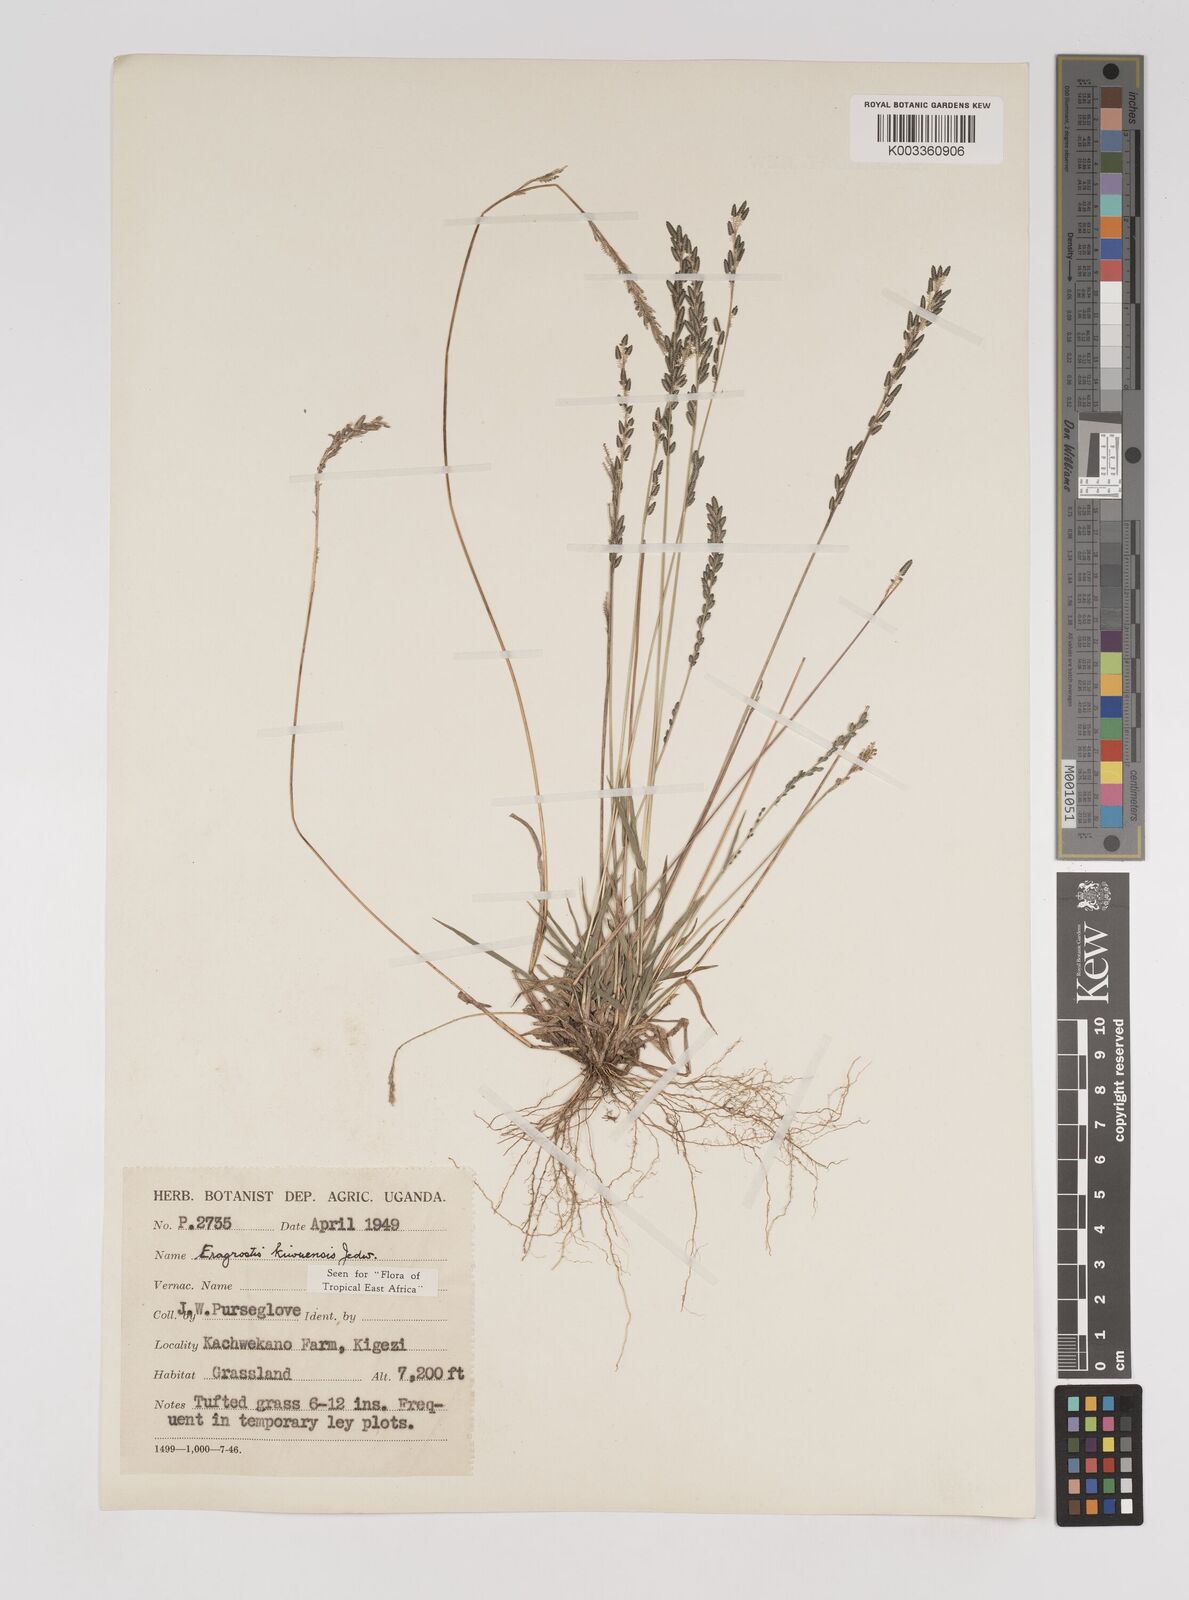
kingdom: Plantae
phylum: Tracheophyta
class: Liliopsida
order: Poales
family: Poaceae
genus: Eragrostis
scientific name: Eragrostis schweinfurthii
